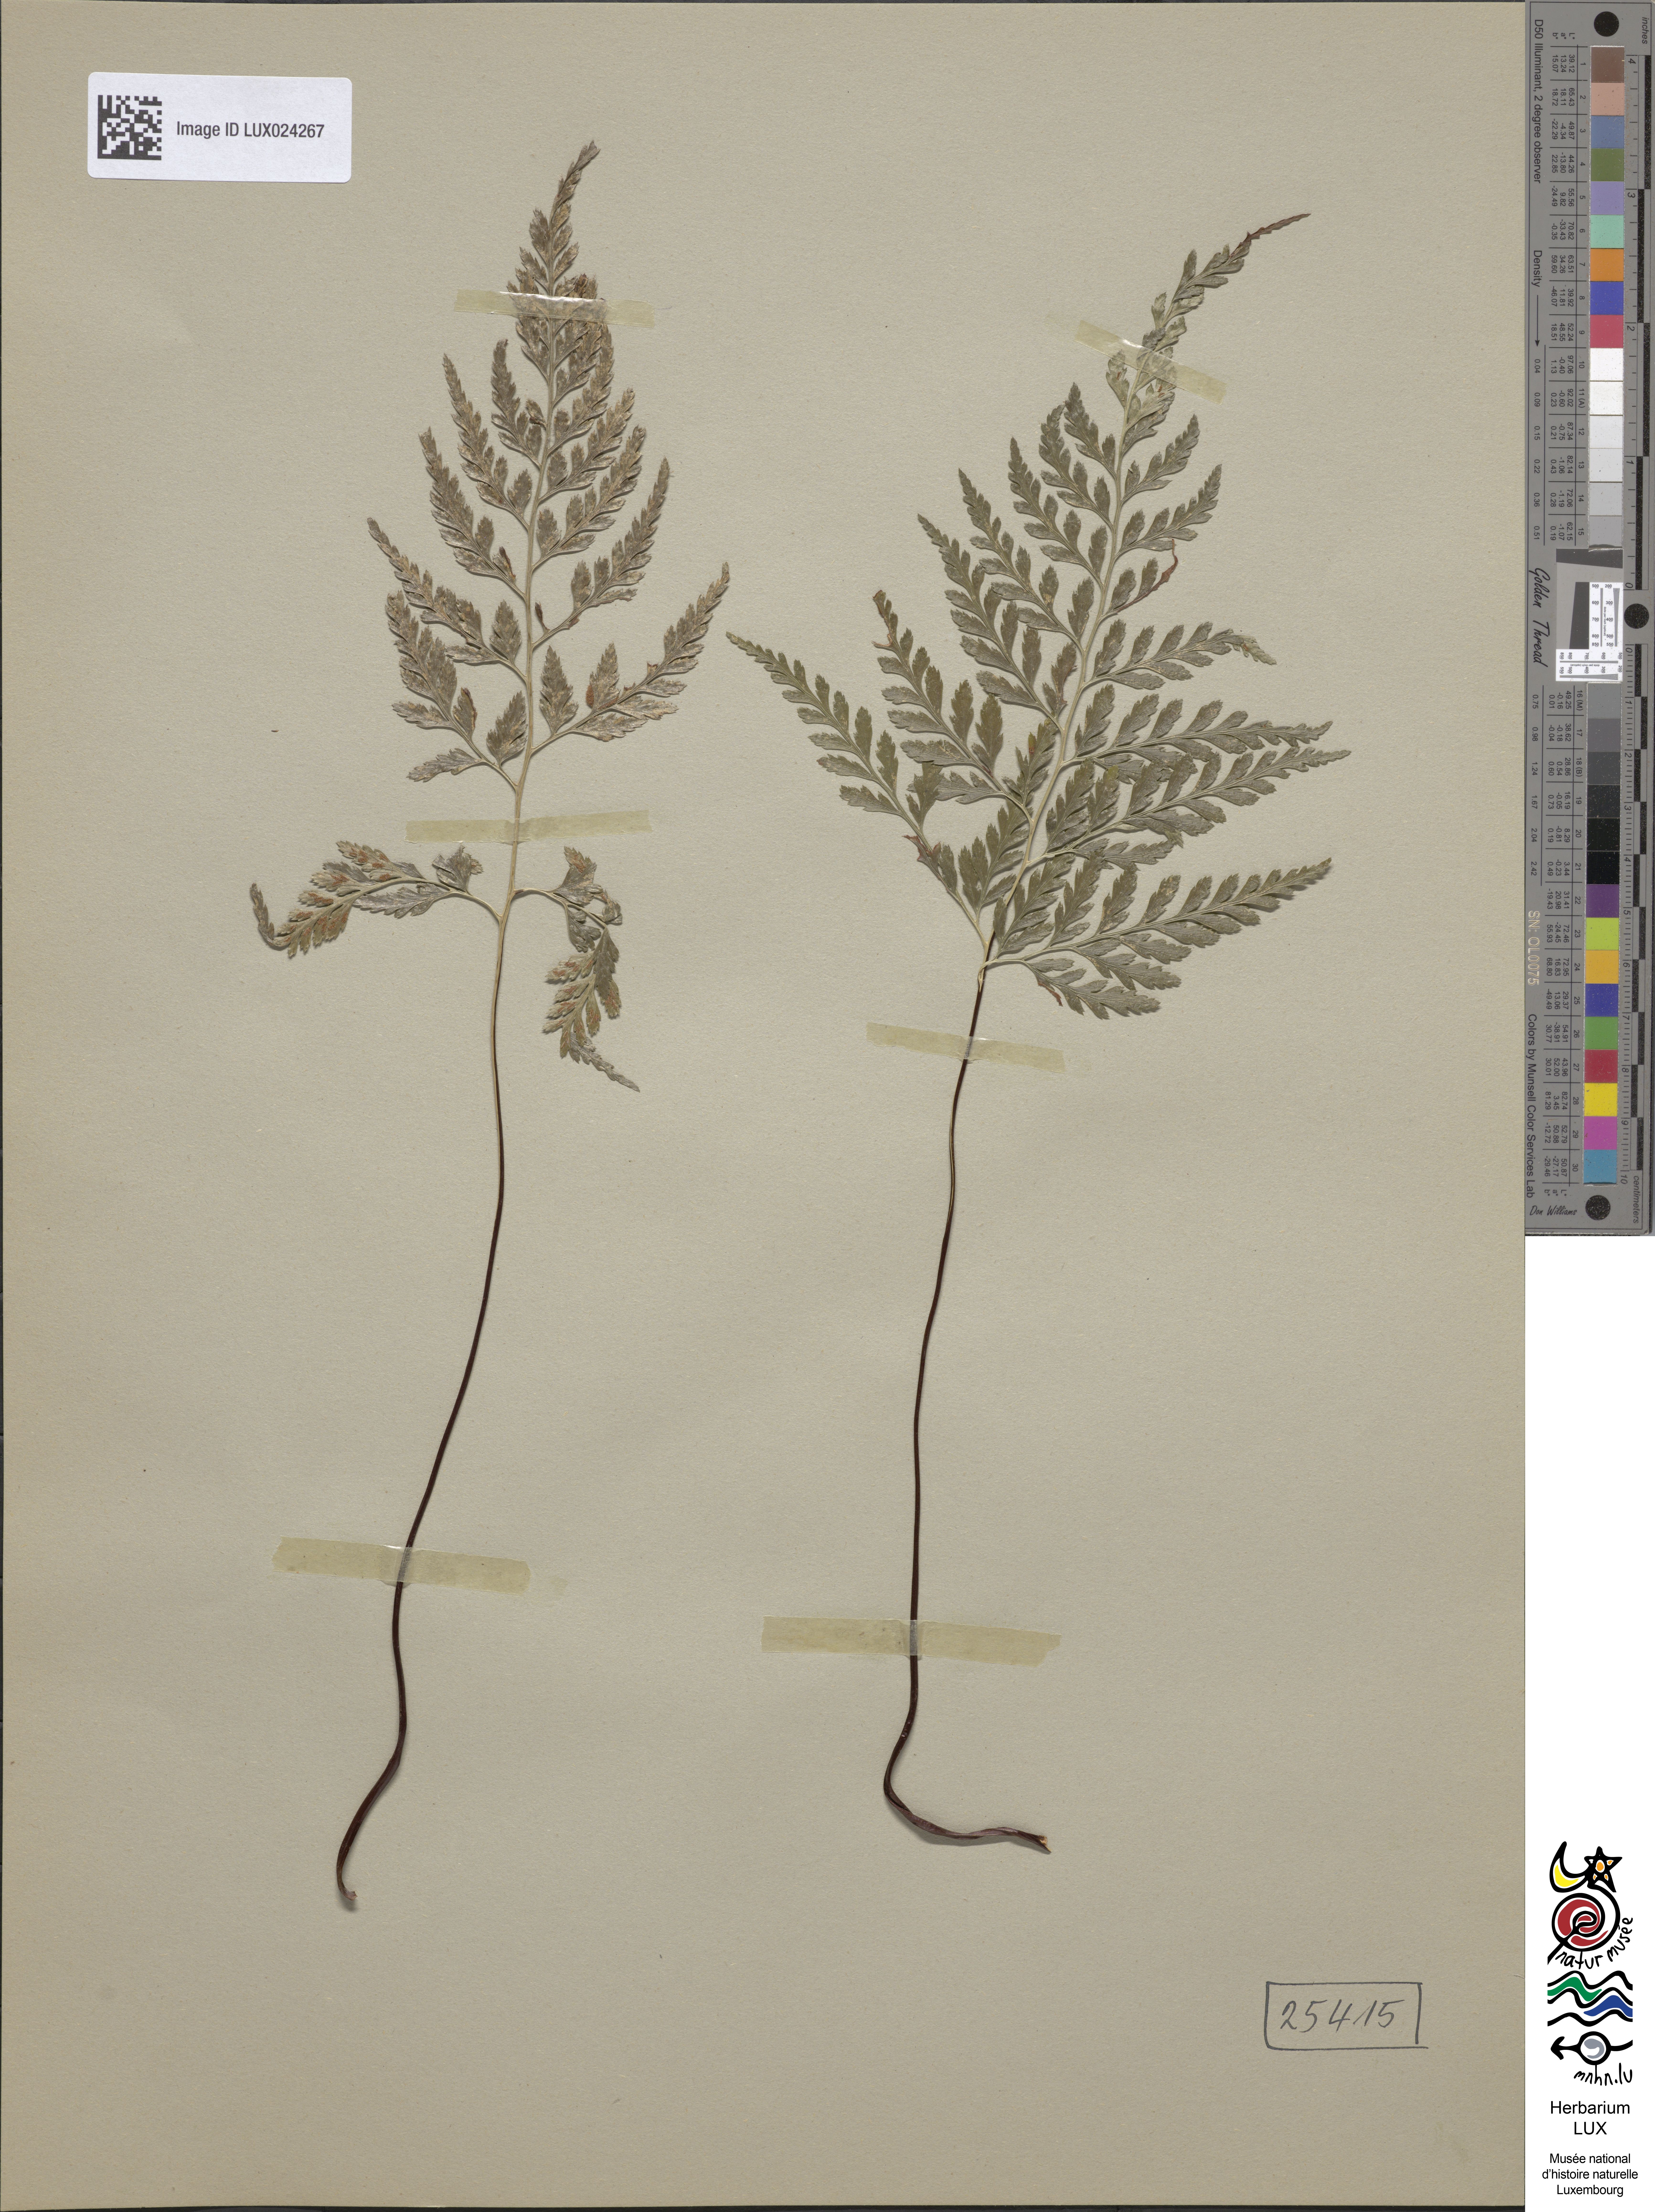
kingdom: Plantae
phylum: Tracheophyta
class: Polypodiopsida
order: Polypodiales
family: Aspleniaceae
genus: Asplenium
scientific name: Asplenium onopteris
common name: Irish spleenwort
